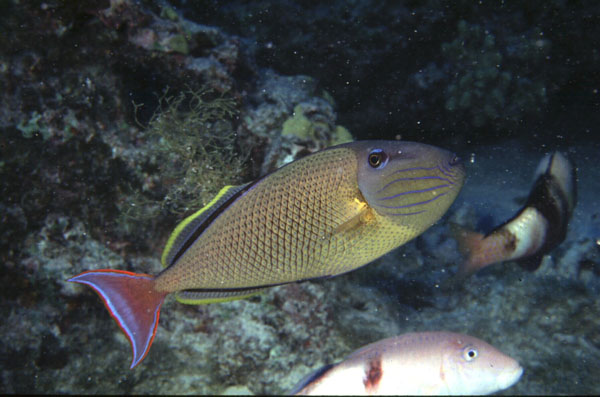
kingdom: Animalia
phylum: Chordata
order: Tetraodontiformes
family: Balistidae
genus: Xanthichthys
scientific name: Xanthichthys mento
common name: Blue-throat trigger
